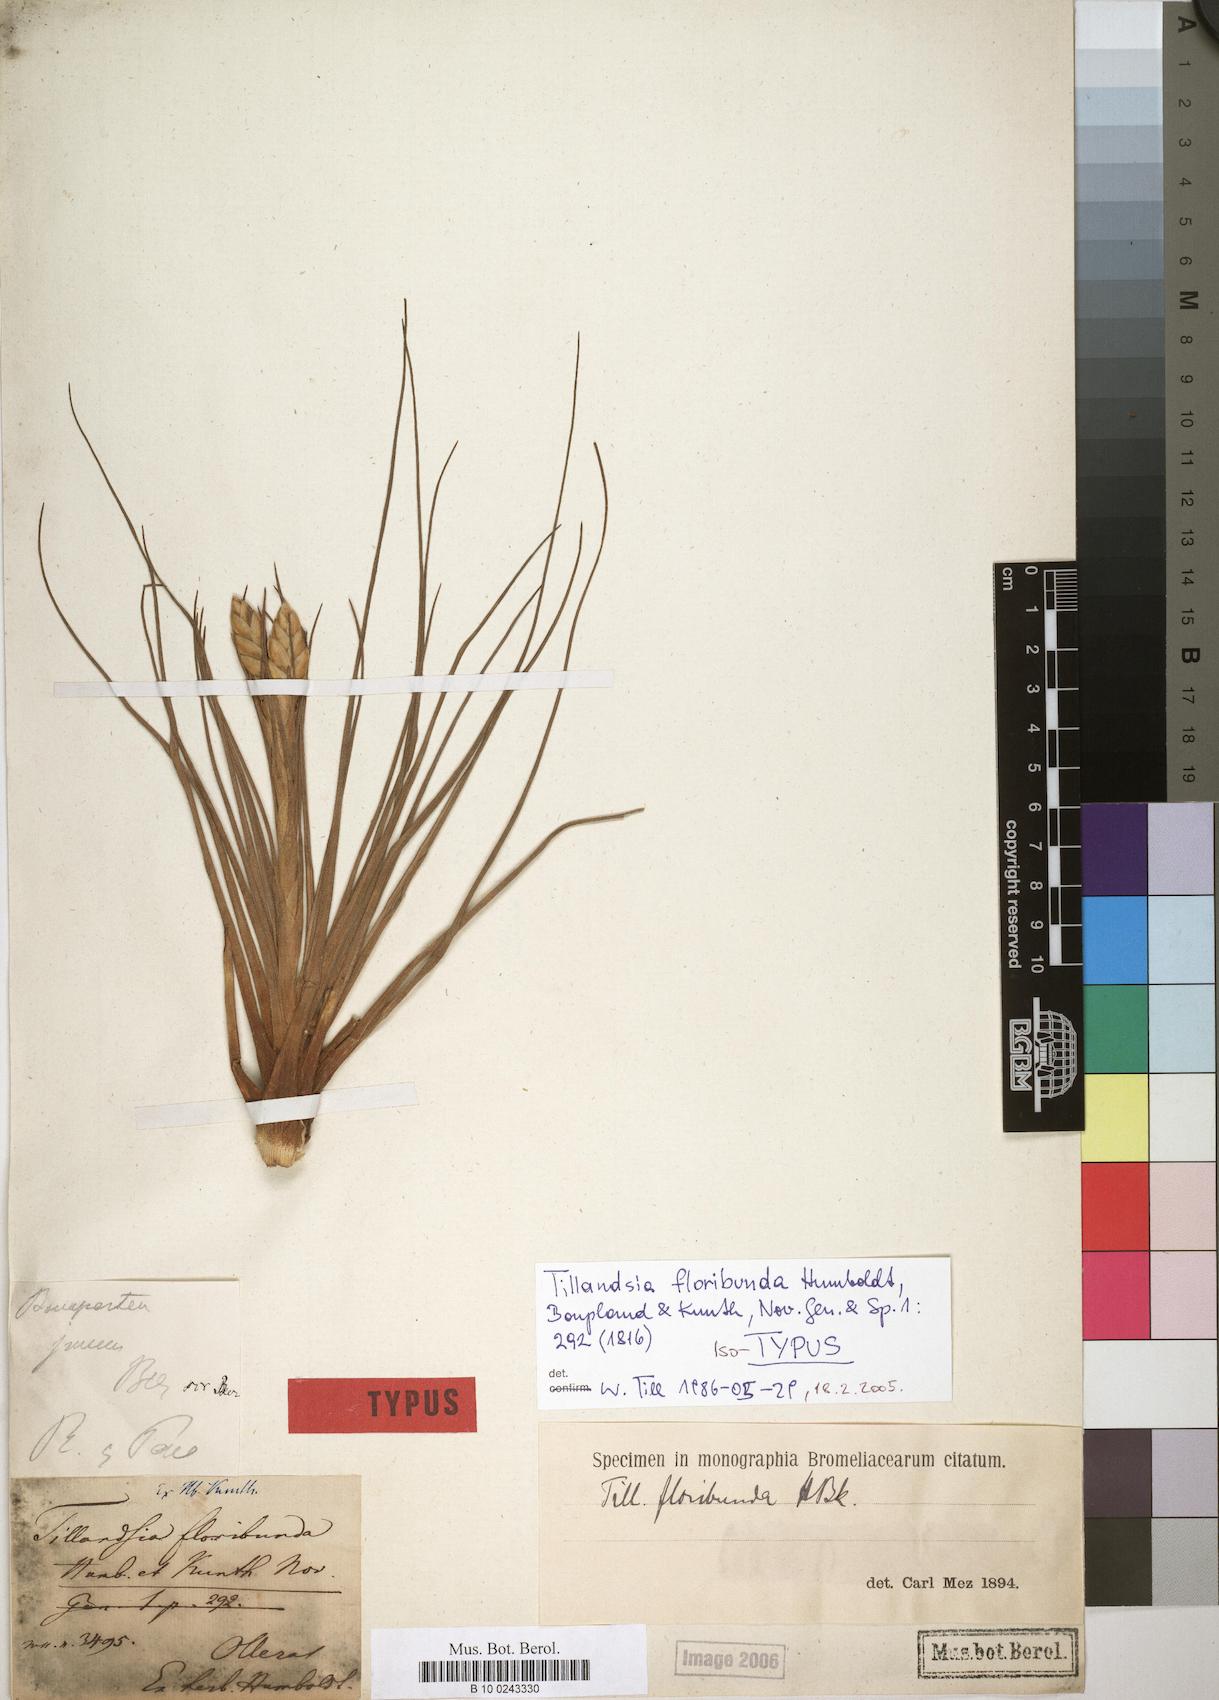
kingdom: Plantae
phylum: Tracheophyta
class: Liliopsida
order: Poales
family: Bromeliaceae
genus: Tillandsia
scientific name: Tillandsia floribunda
